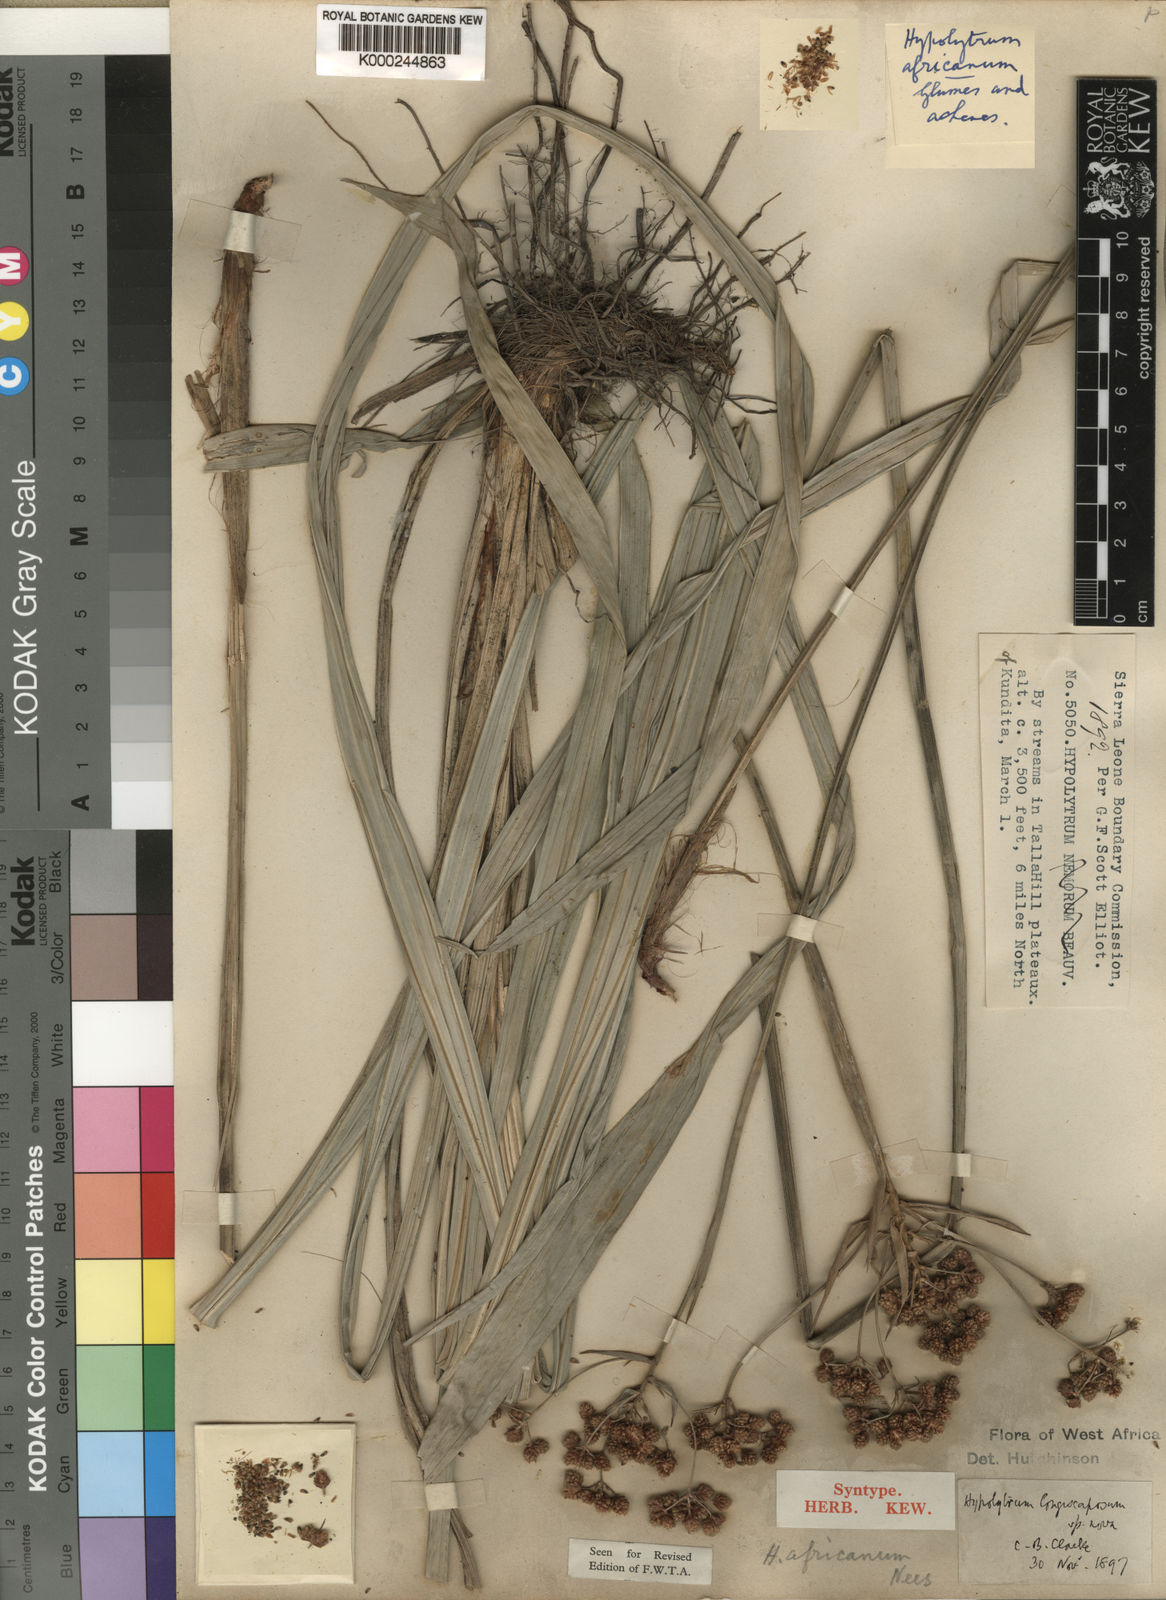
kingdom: Plantae
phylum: Tracheophyta
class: Liliopsida
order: Poales
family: Cyperaceae
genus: Hypolytrum
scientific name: Hypolytrum africanum
